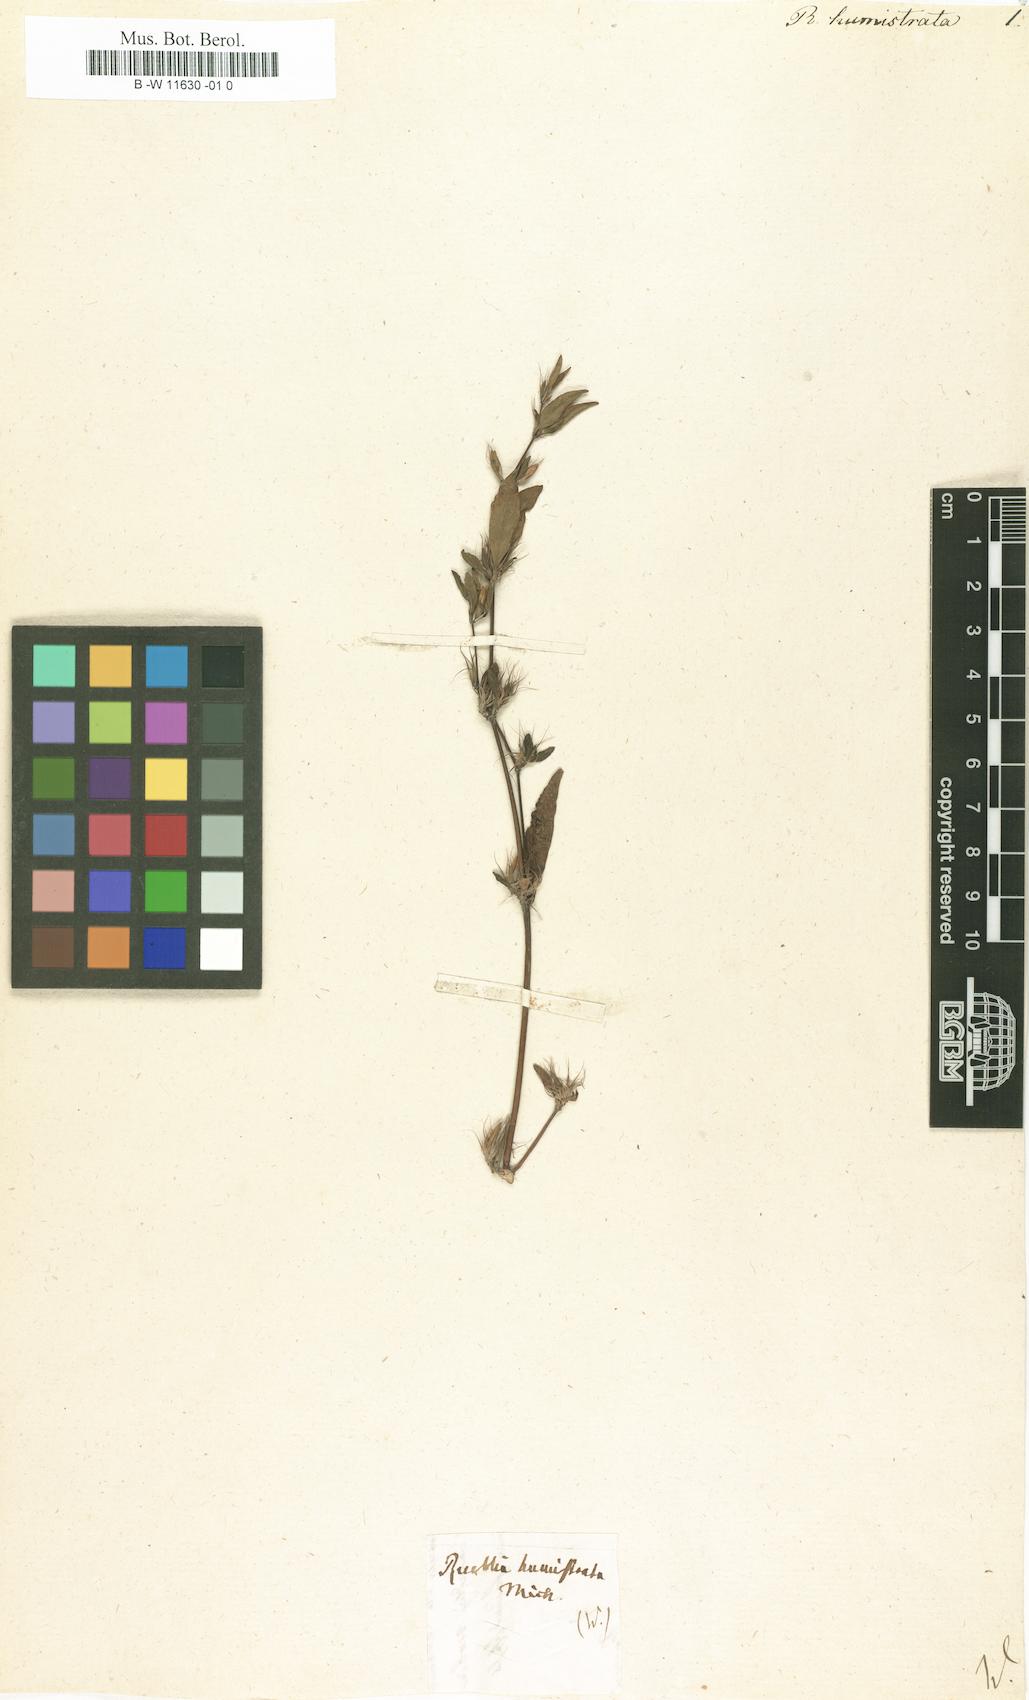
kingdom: Plantae
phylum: Tracheophyta
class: Magnoliopsida
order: Lamiales
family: Acanthaceae
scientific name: Acanthaceae
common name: Acanthaceae
